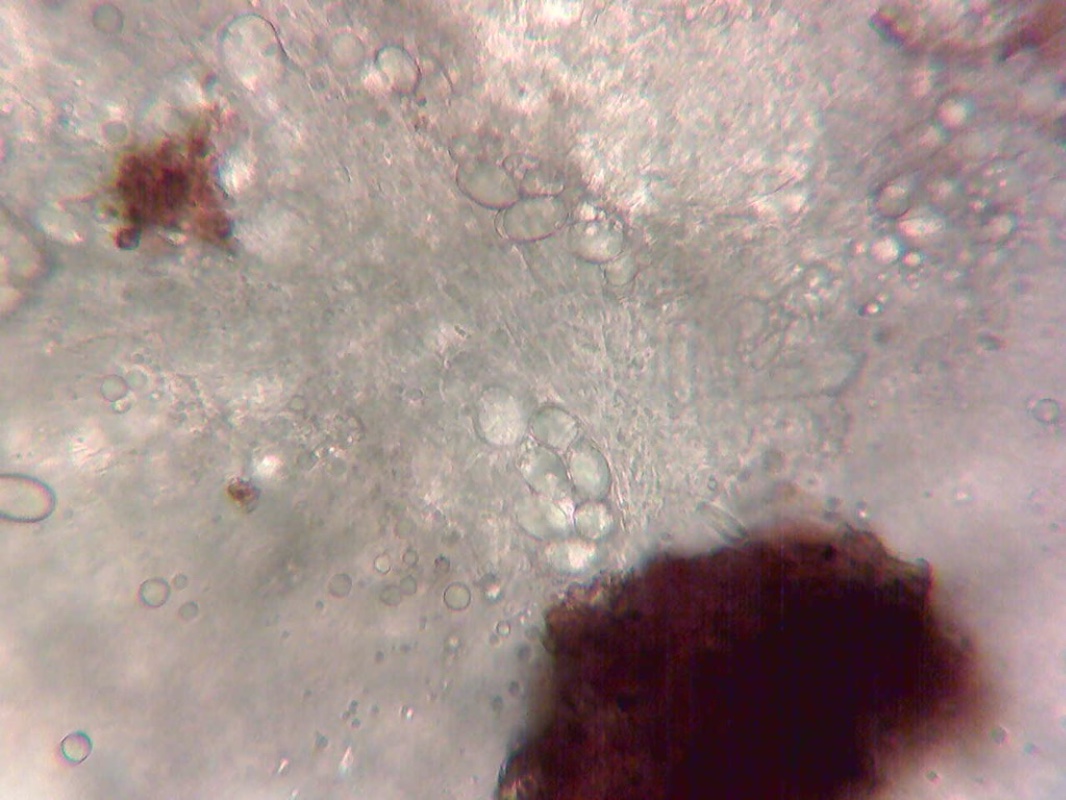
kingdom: Fungi
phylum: Ascomycota
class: Pezizomycetes
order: Pezizales
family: Helvellaceae
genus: Balsamia
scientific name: Balsamia polysperma
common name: bredsporet nøddetrøffel
